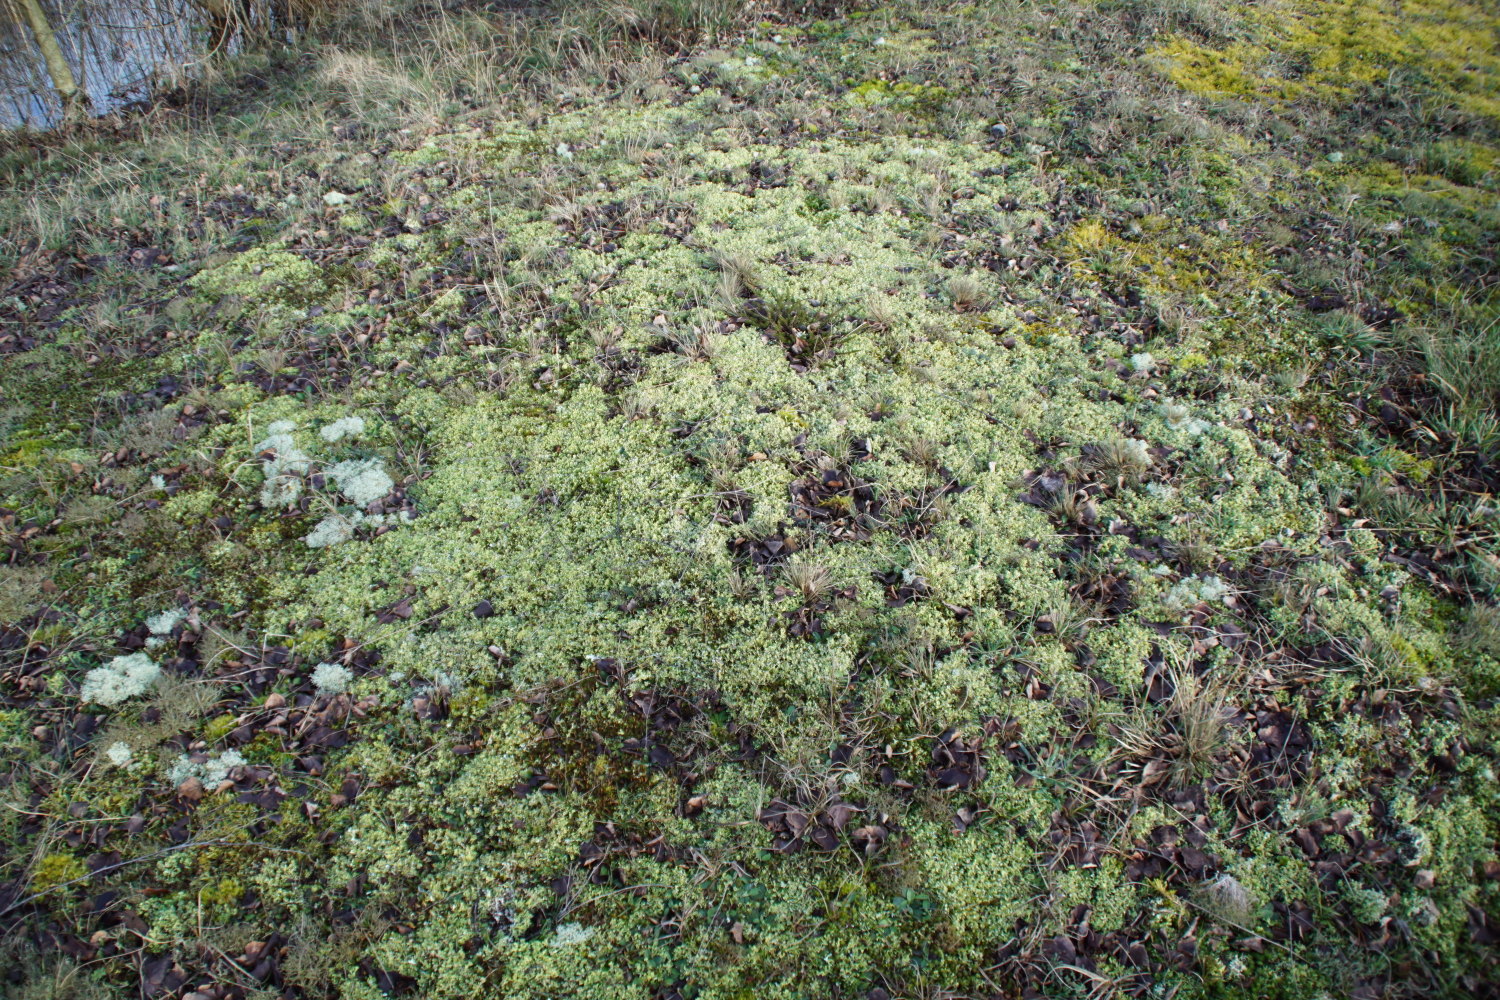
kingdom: Fungi
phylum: Ascomycota
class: Lecanoromycetes
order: Lecanorales
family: Cladoniaceae
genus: Cladonia
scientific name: Cladonia foliacea
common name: fliget bægerlav
